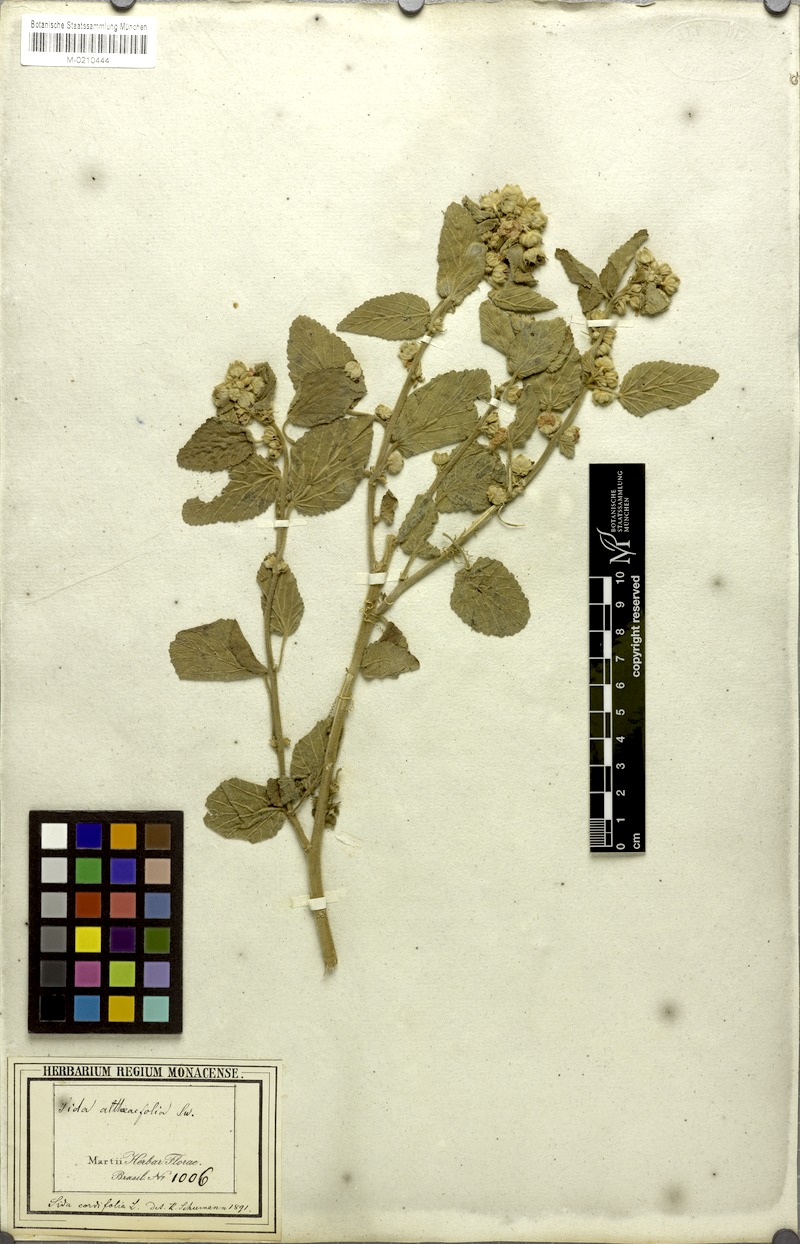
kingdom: Plantae
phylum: Tracheophyta
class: Magnoliopsida
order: Malvales
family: Malvaceae
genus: Sida
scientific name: Sida cordifolia
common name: Ilima
